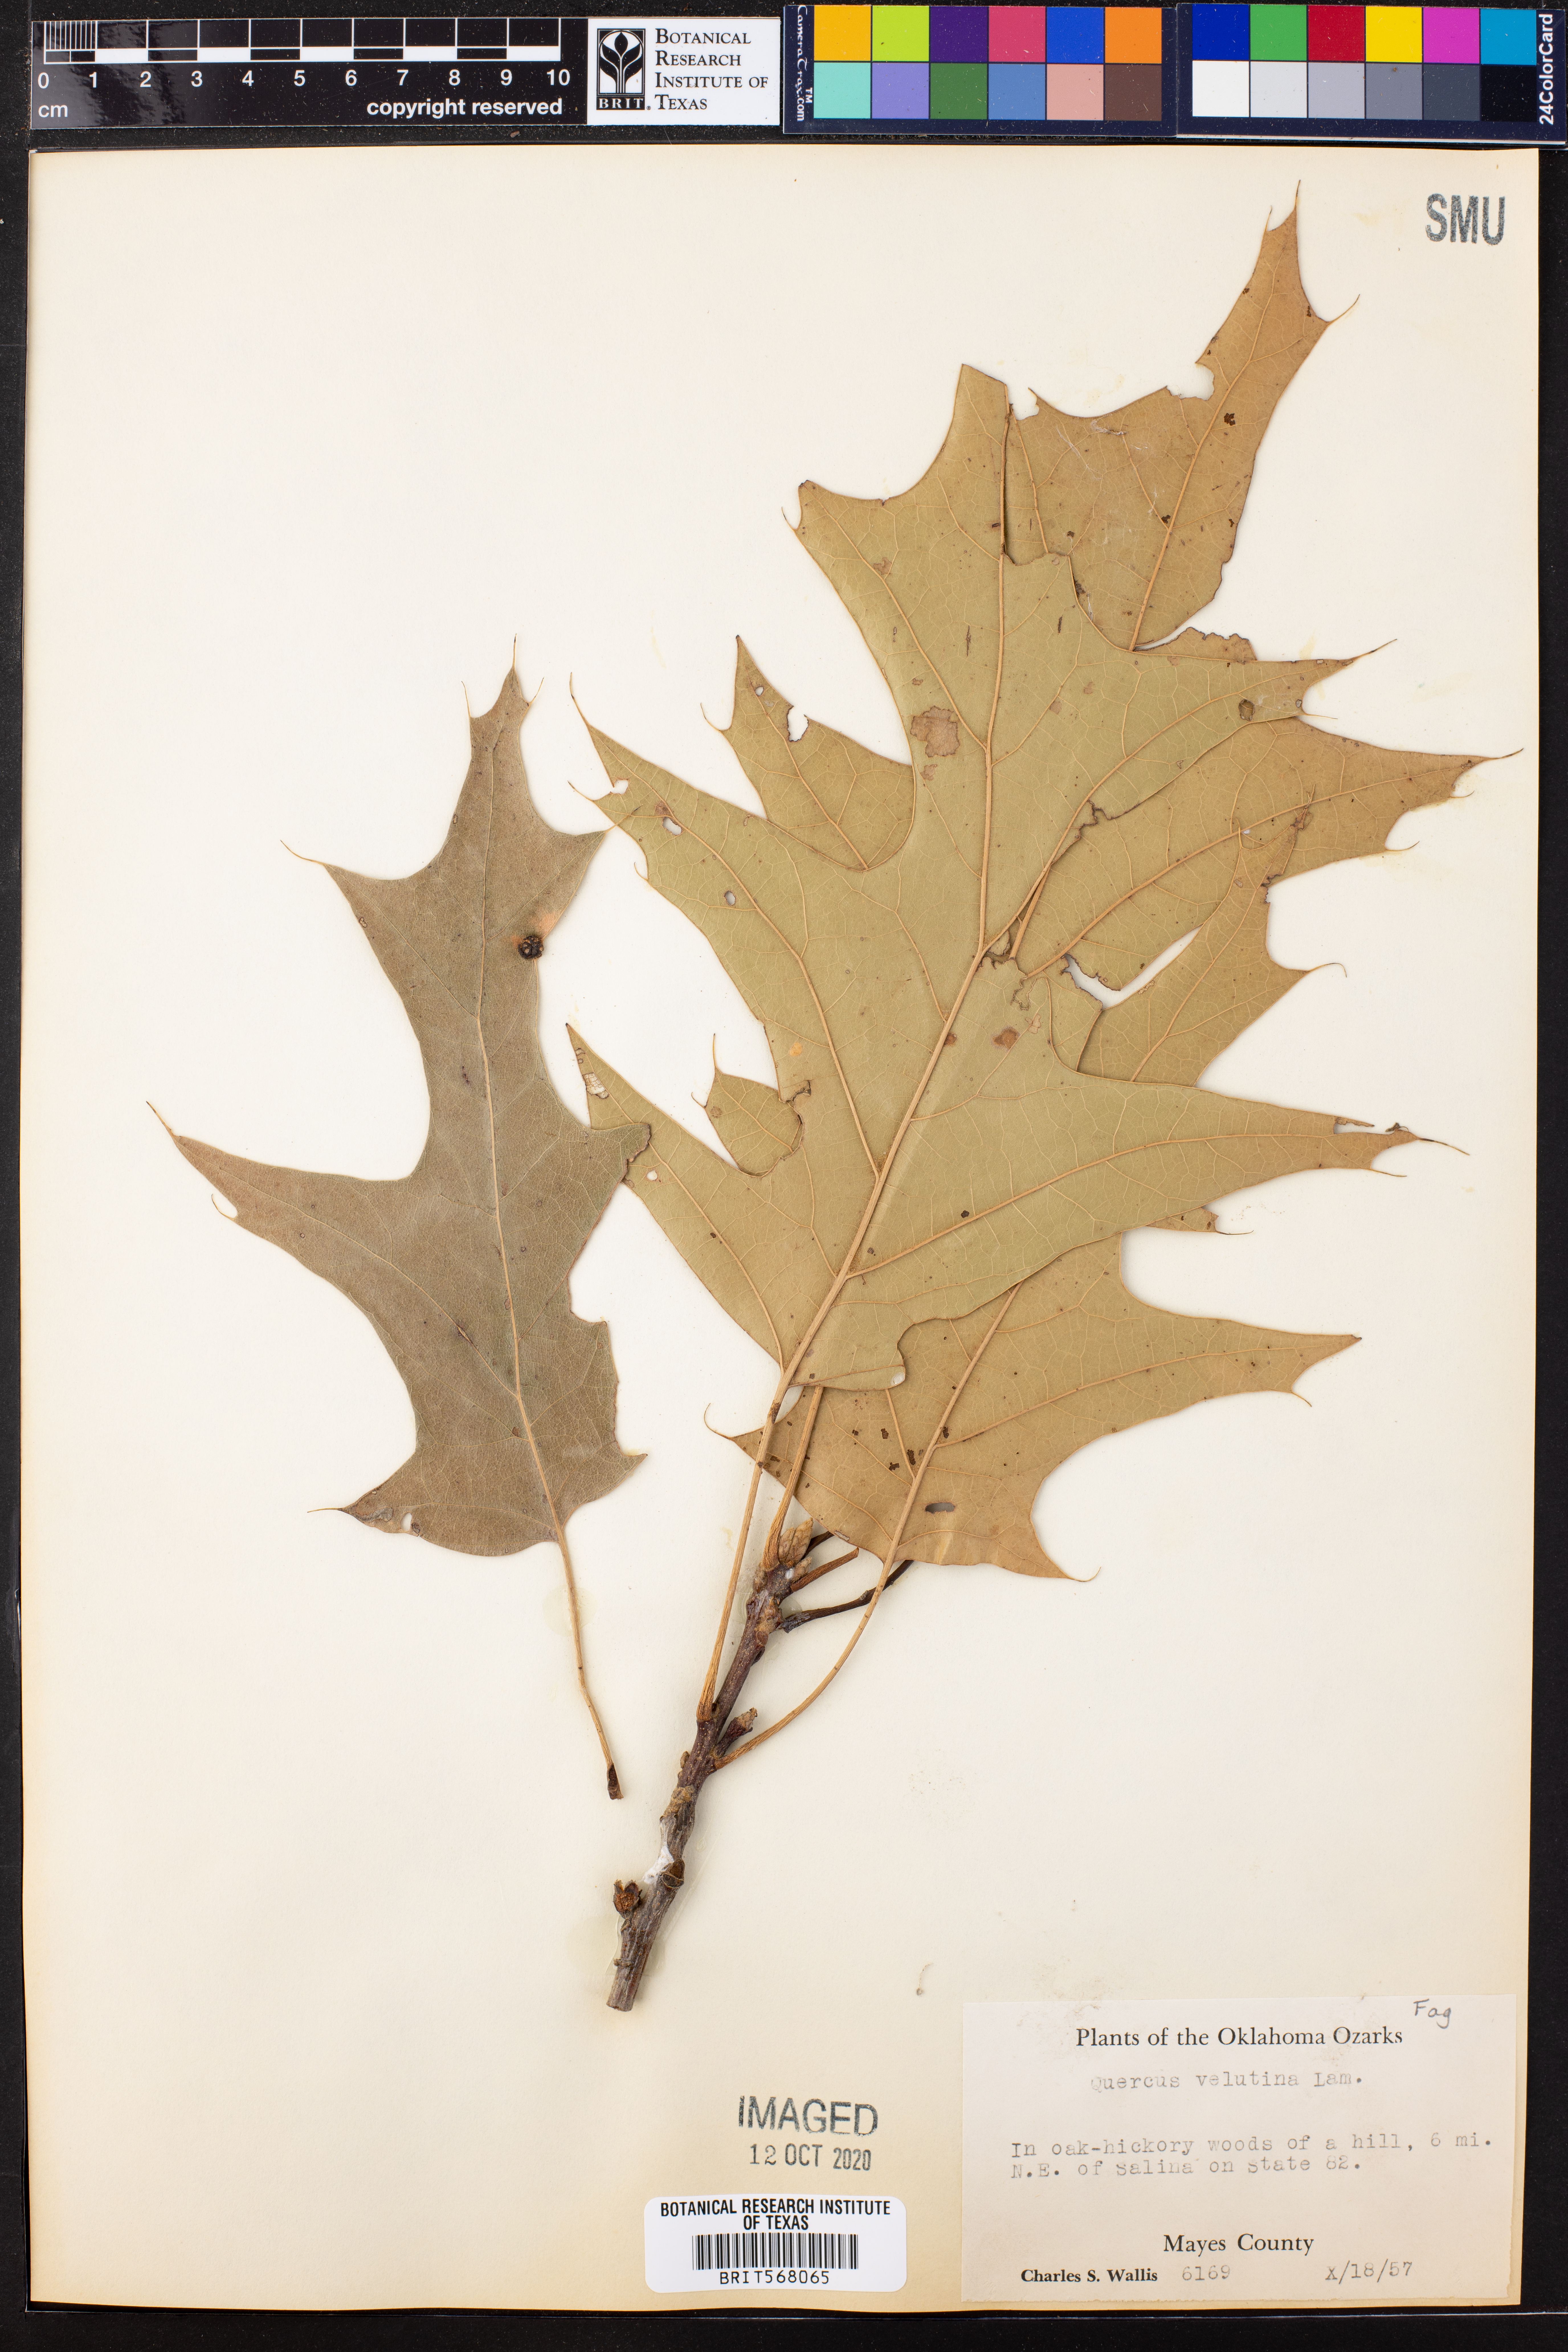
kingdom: Plantae
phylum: Tracheophyta
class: Magnoliopsida
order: Fagales
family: Fagaceae
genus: Quercus
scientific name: Quercus velutina
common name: Black oak
